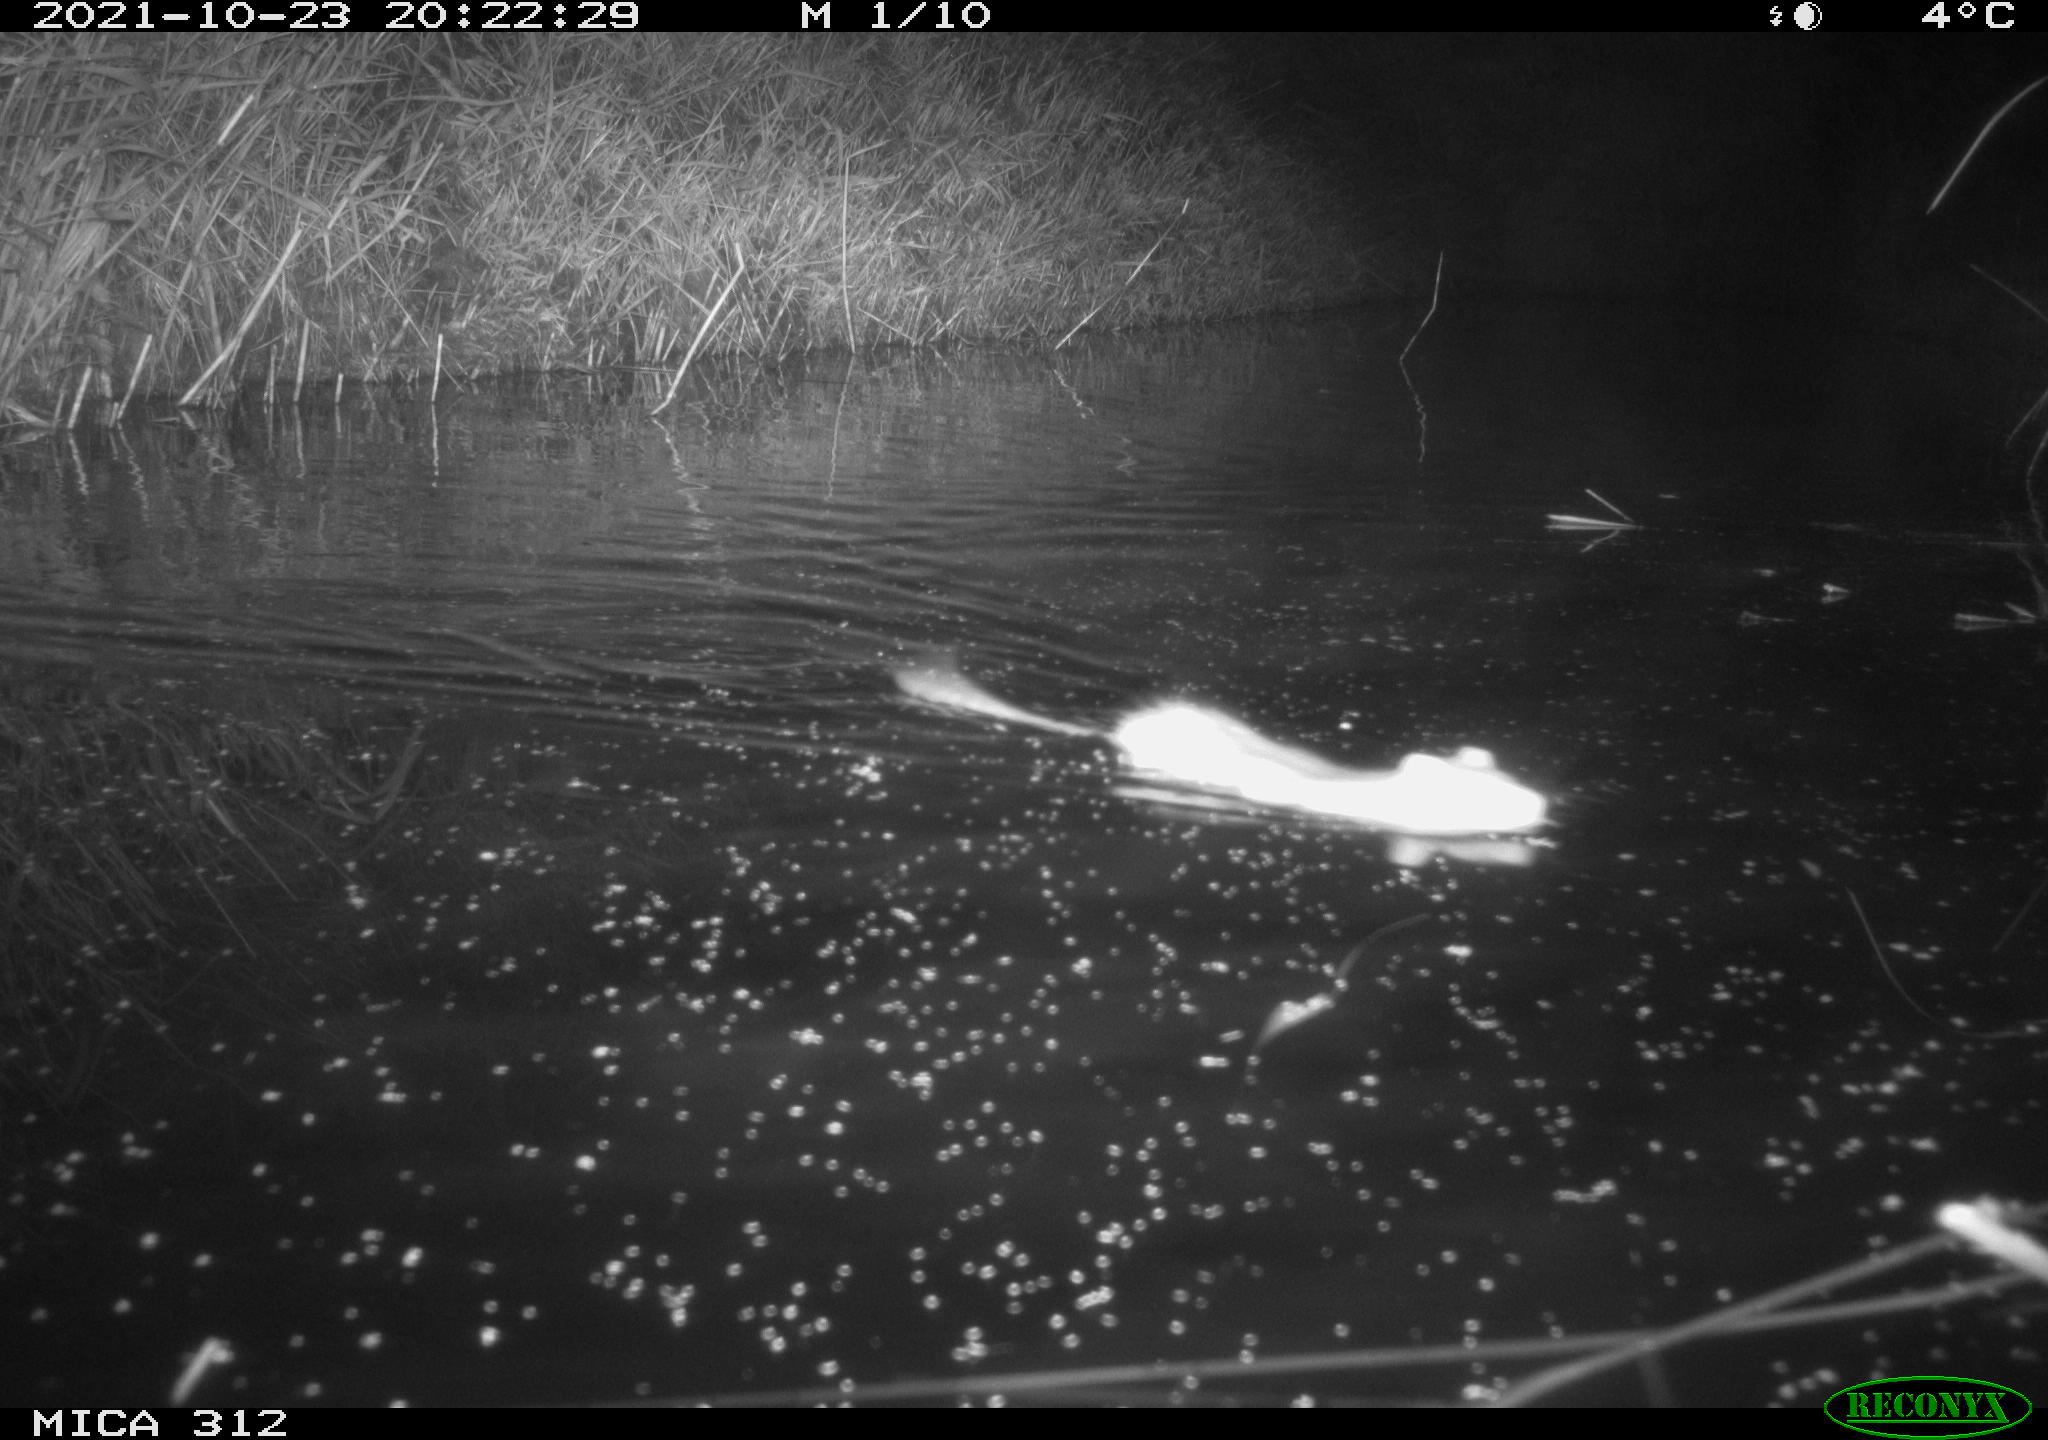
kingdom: Animalia
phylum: Chordata
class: Mammalia
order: Rodentia
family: Muridae
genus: Rattus
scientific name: Rattus norvegicus
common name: Brown rat
